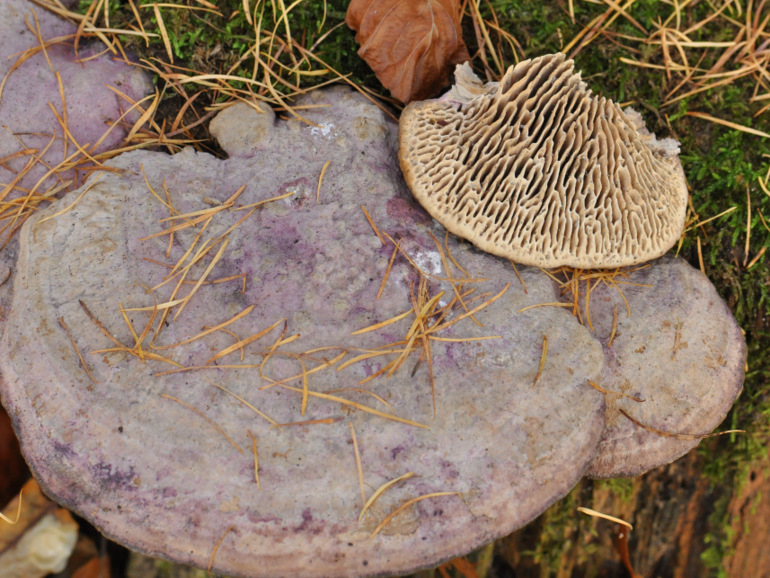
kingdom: Fungi
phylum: Basidiomycota
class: Agaricomycetes
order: Polyporales
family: Fomitopsidaceae
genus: Daedalea
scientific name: Daedalea quercina
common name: ege-labyrintsvamp
